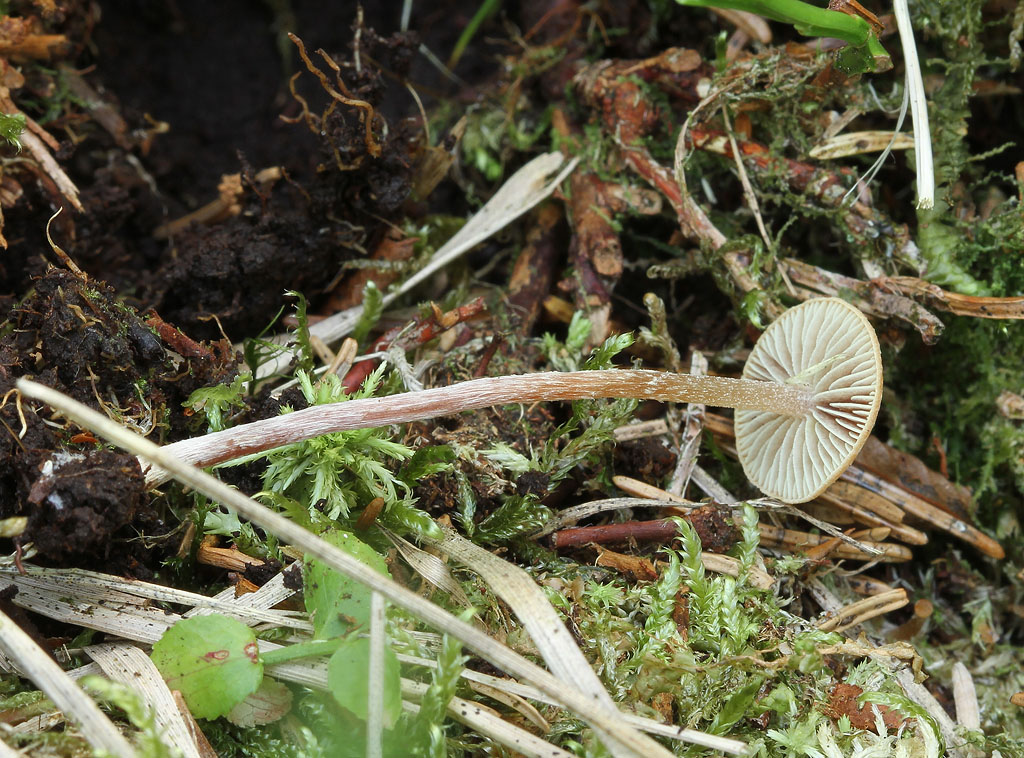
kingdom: Fungi
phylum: Basidiomycota
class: Agaricomycetes
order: Agaricales
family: Strophariaceae
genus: Bogbodia
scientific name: Bogbodia uda
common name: tørve-svovlhat
